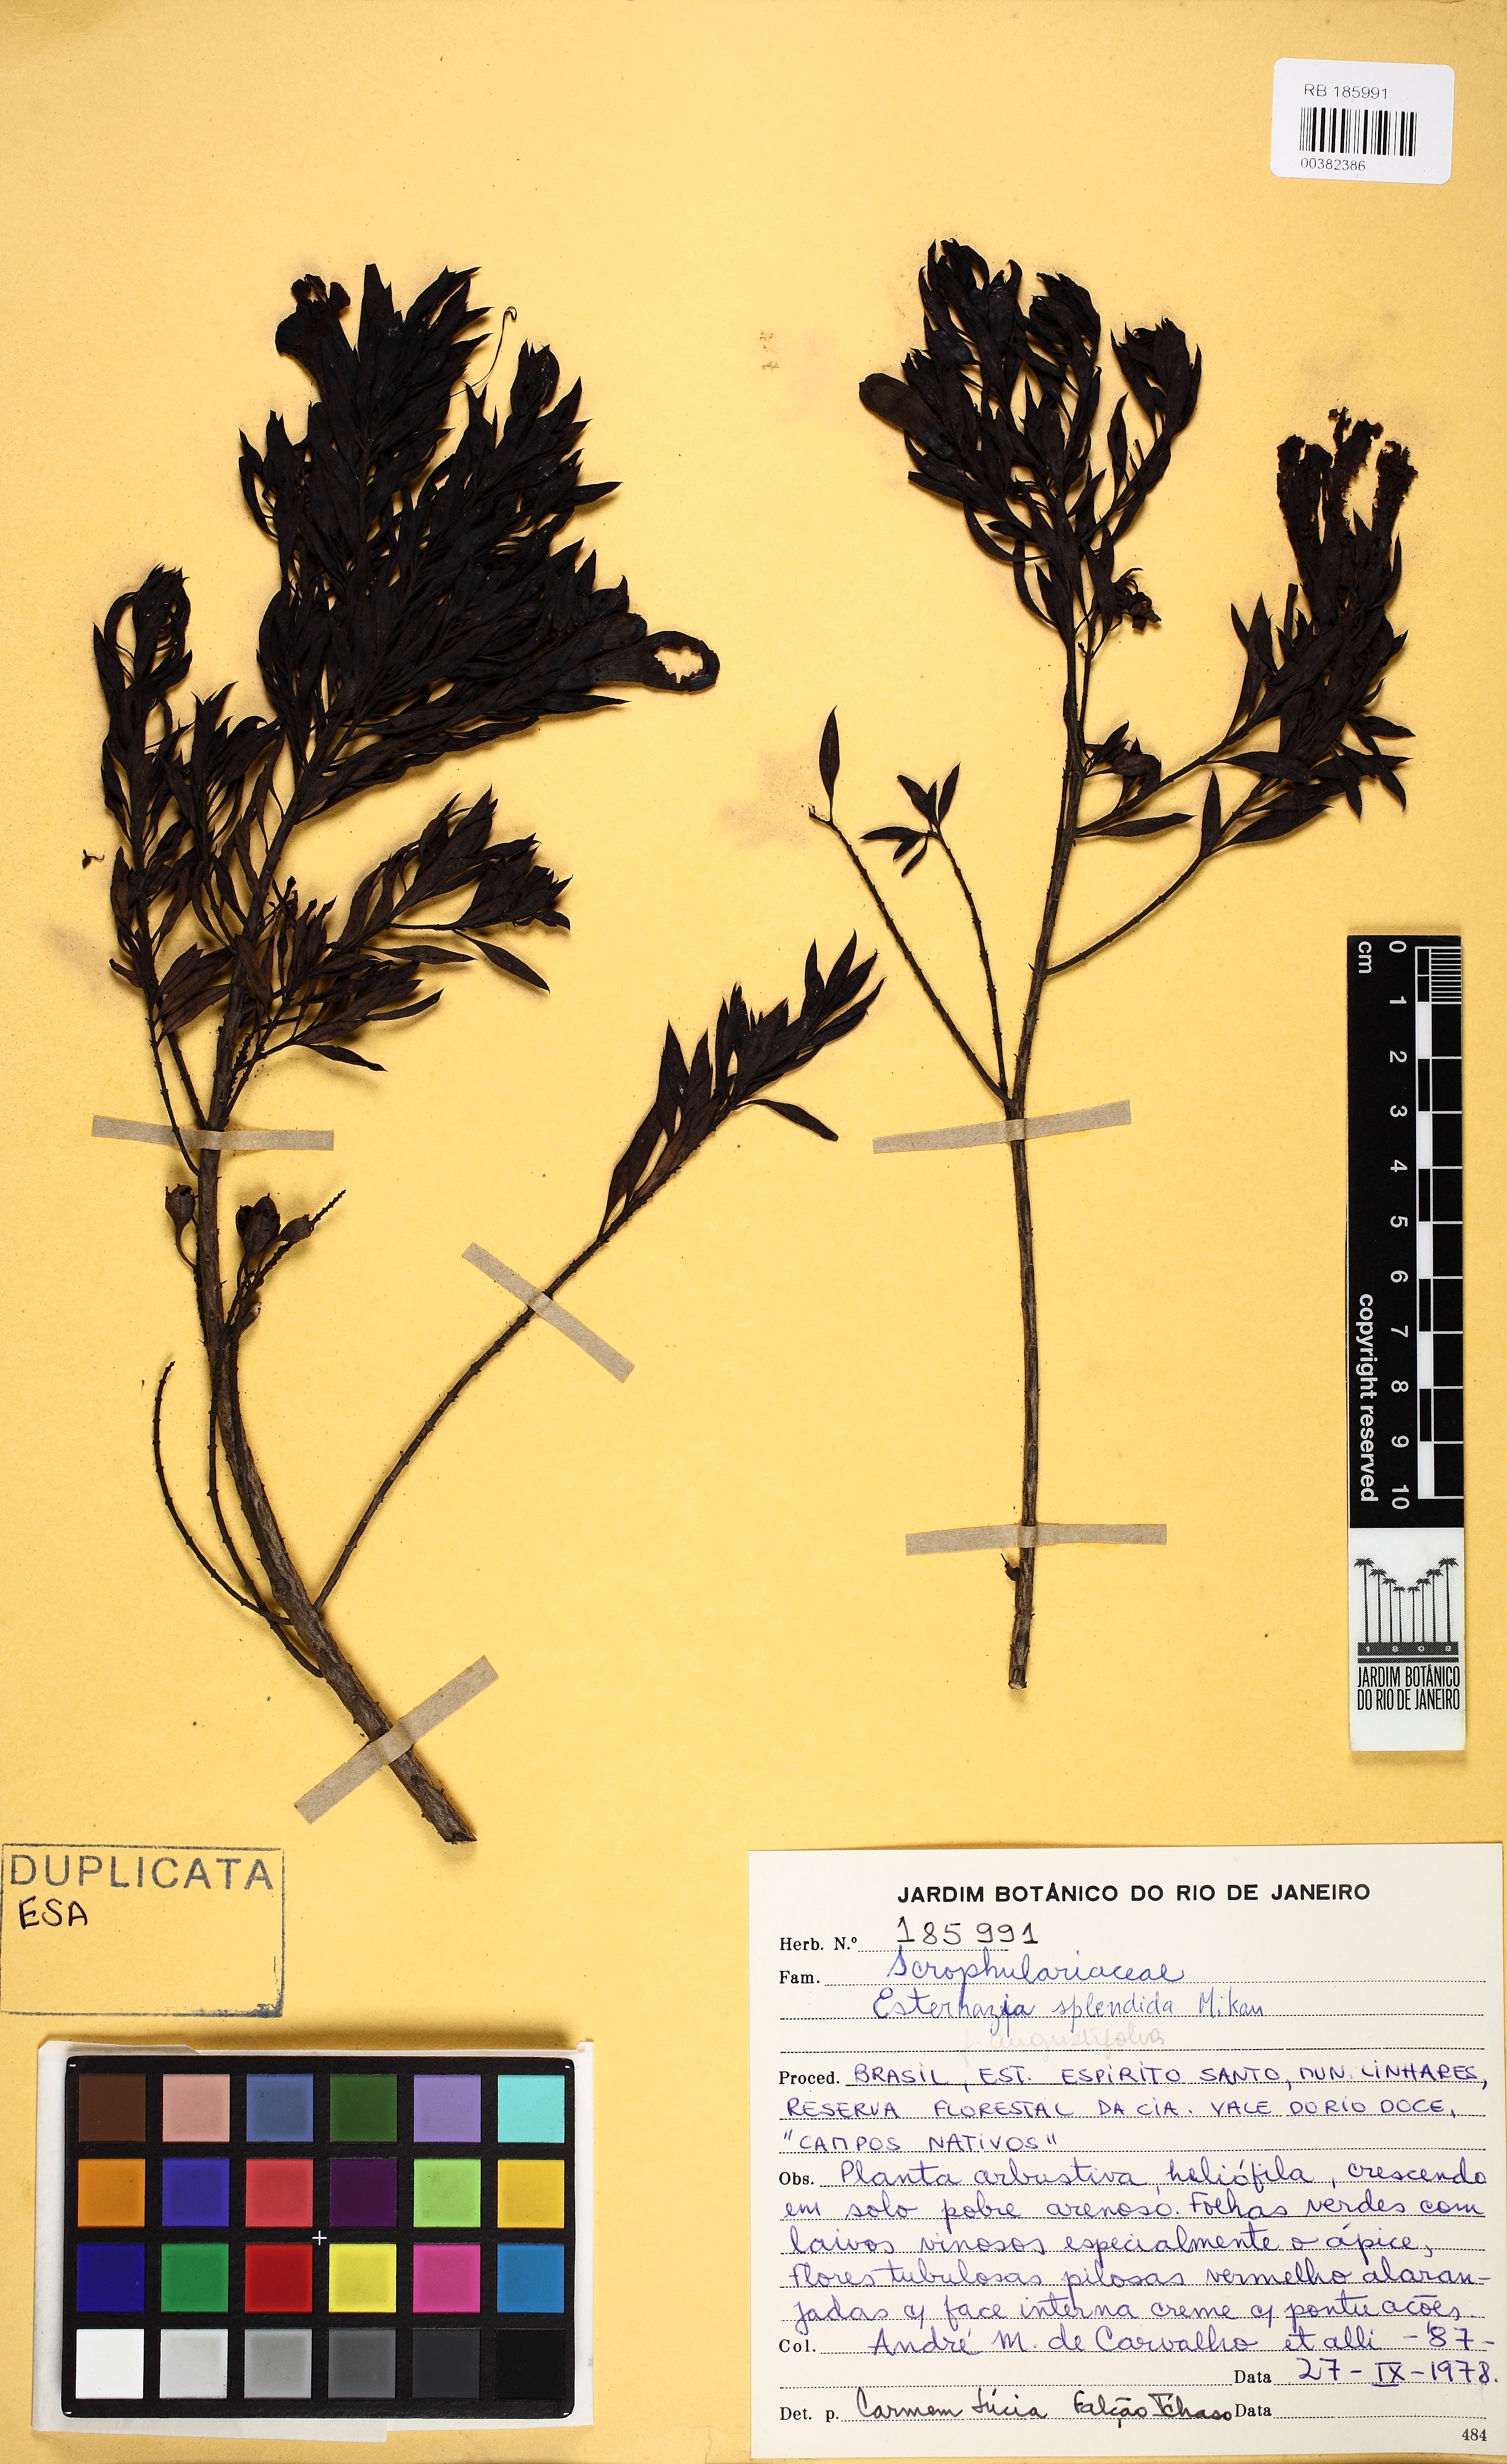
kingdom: Plantae
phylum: Tracheophyta
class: Magnoliopsida
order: Lamiales
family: Orobanchaceae
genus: Esterhazya
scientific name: Esterhazya splendida
